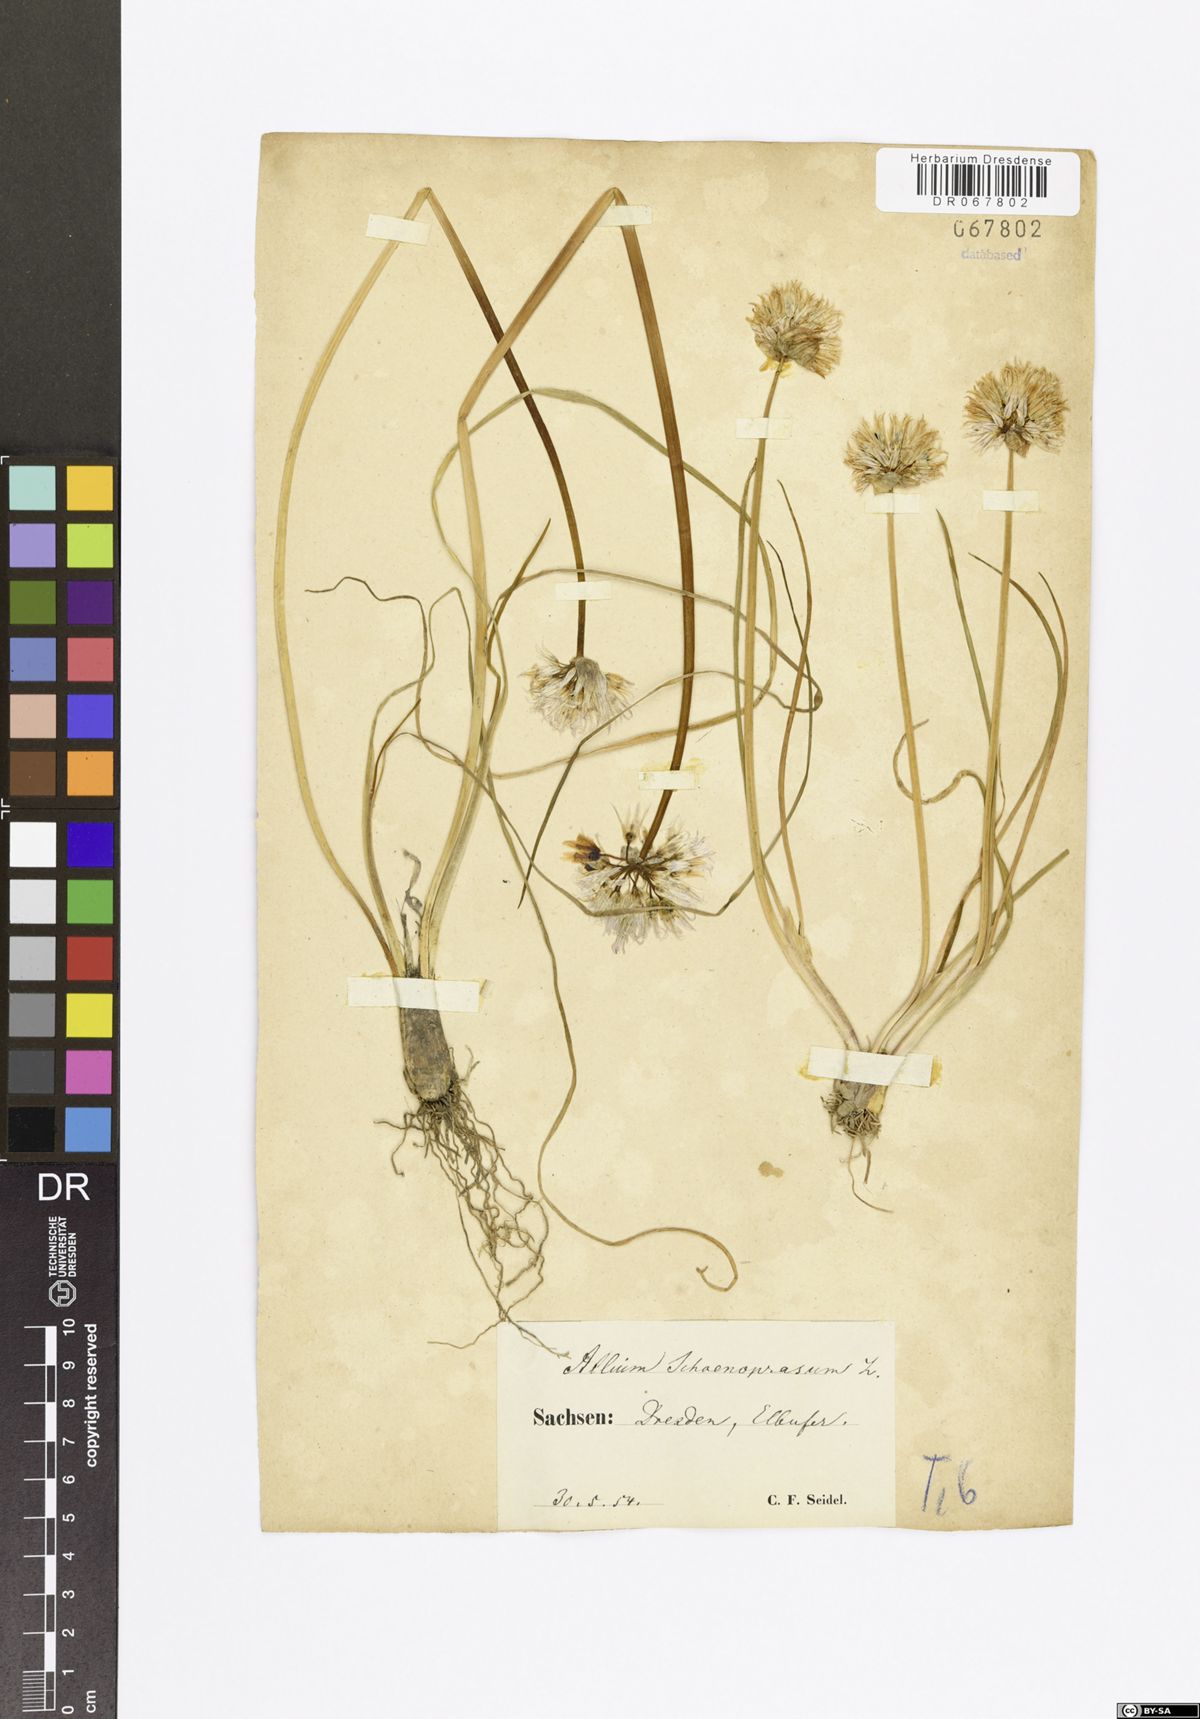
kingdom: Plantae
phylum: Tracheophyta
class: Liliopsida
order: Asparagales
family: Amaryllidaceae
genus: Allium
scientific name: Allium schoenoprasum
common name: Chives
